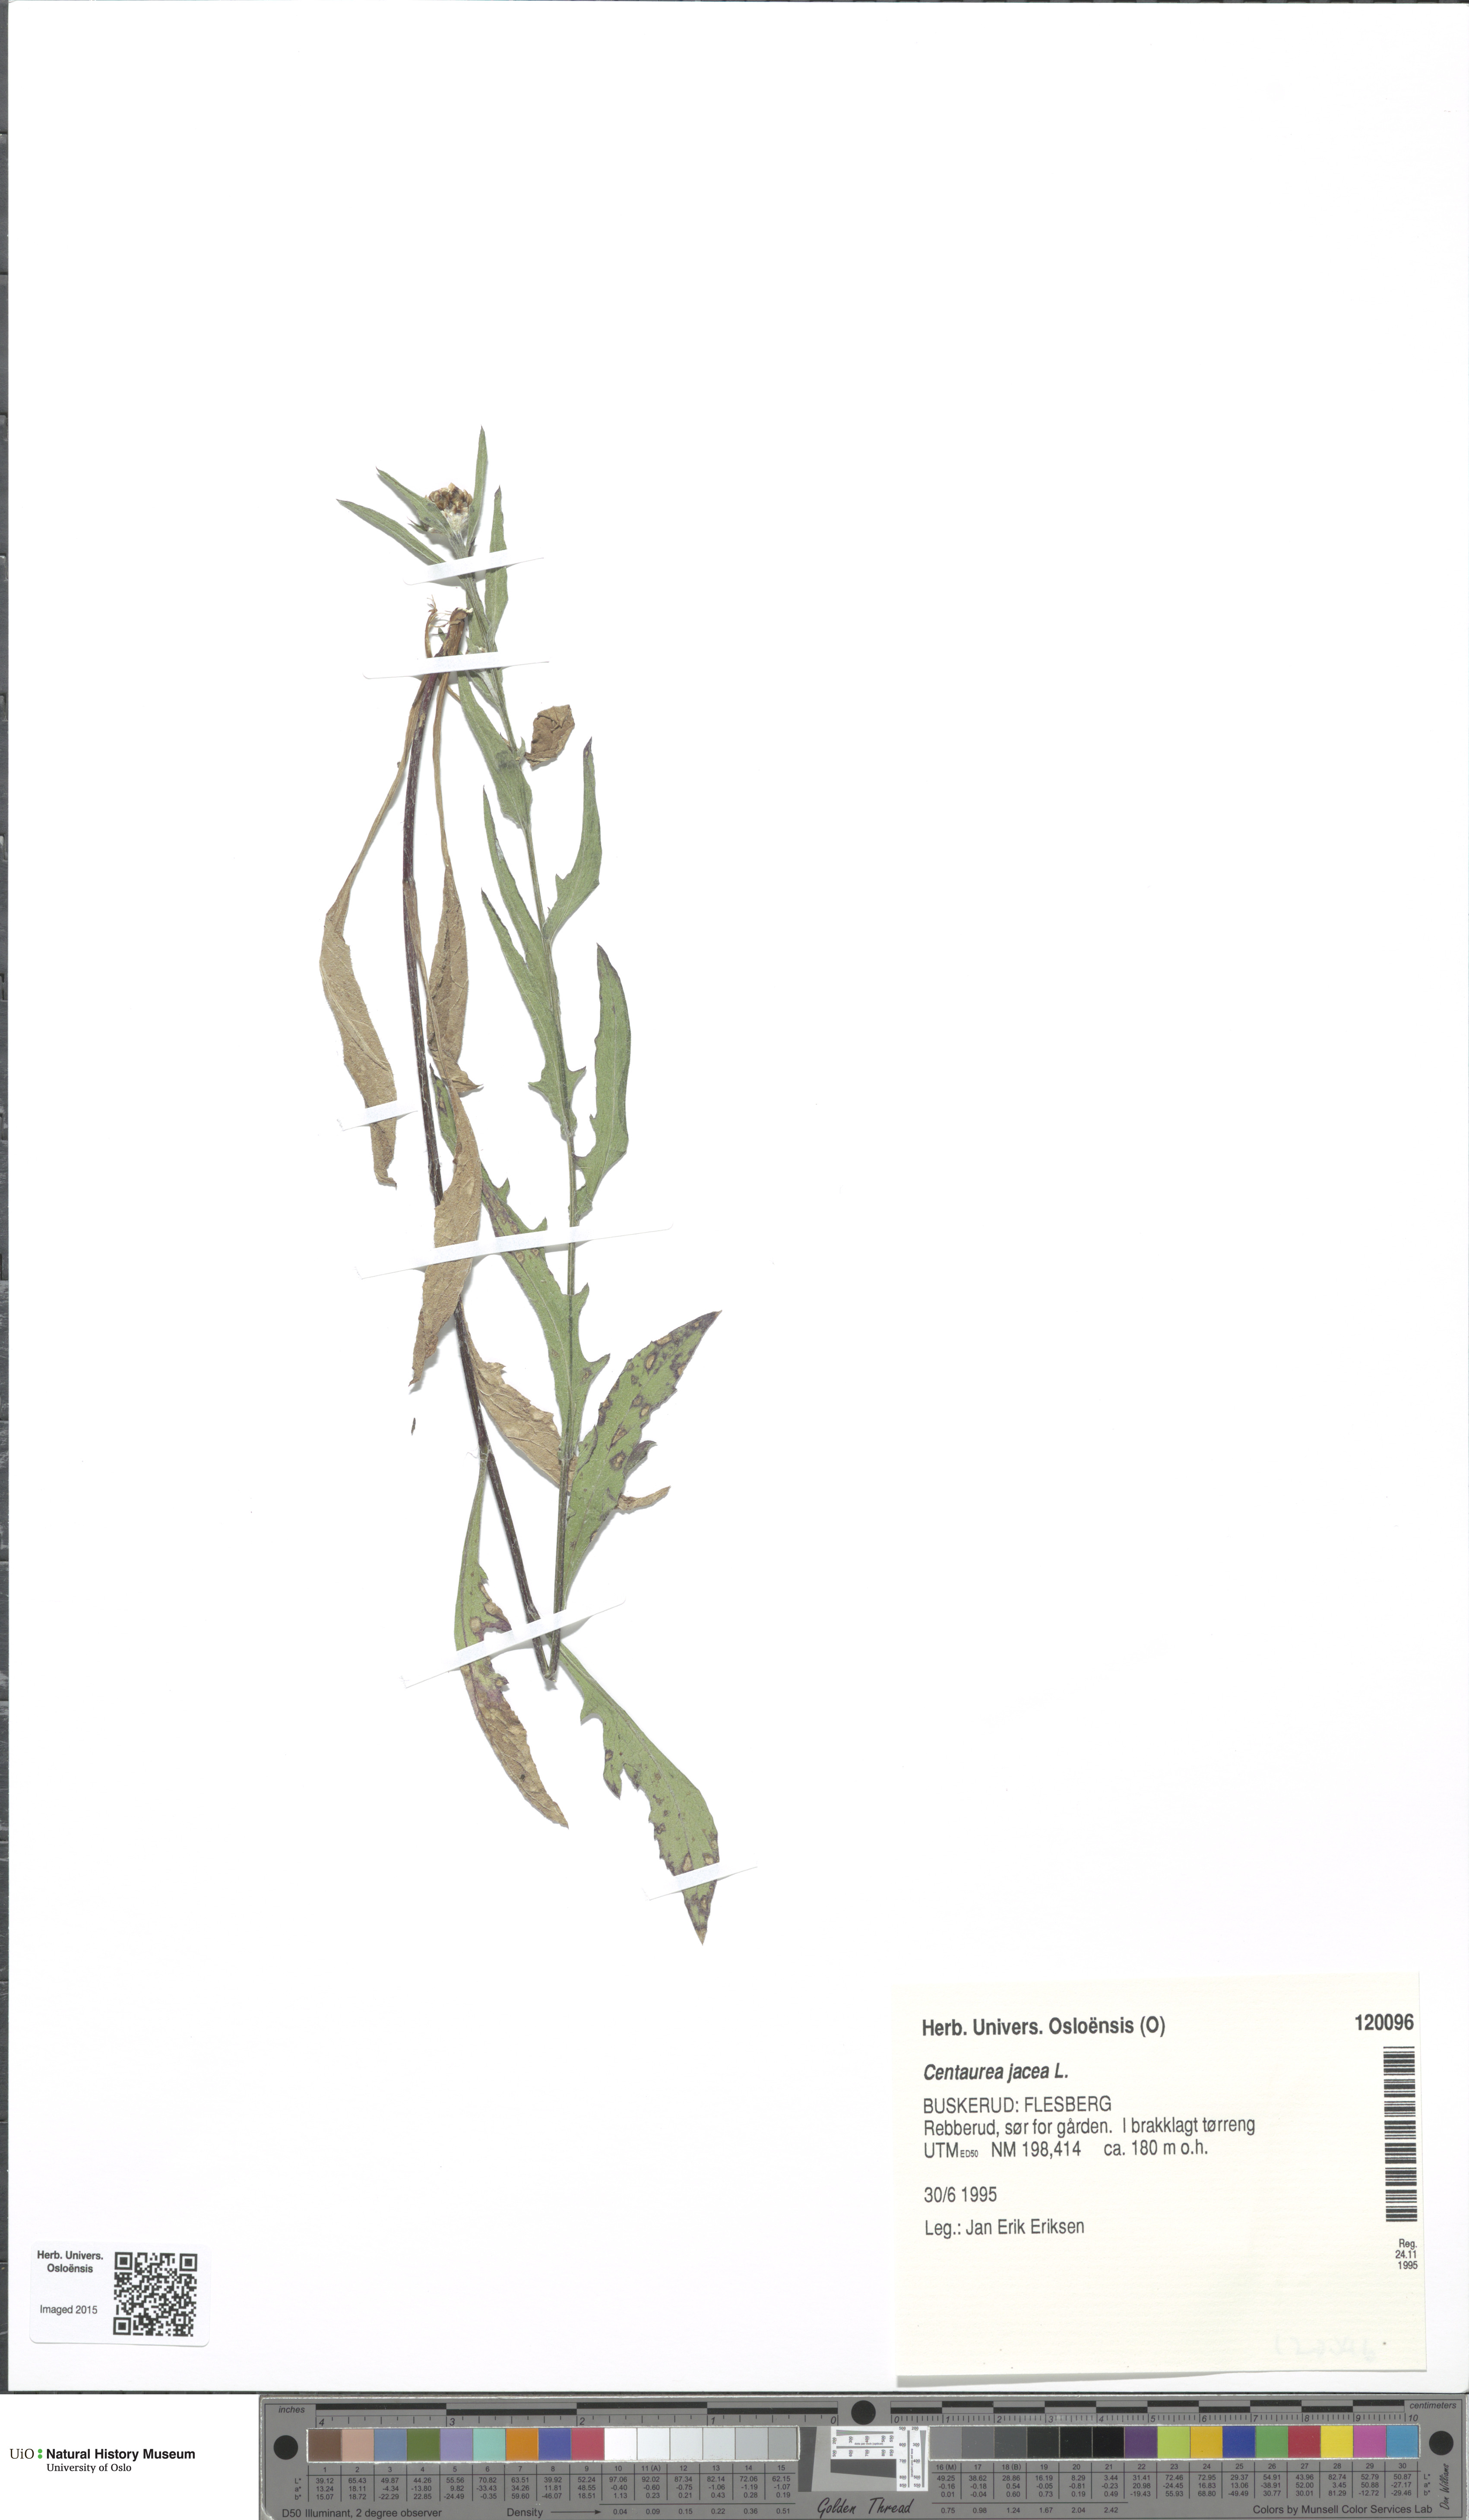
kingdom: Plantae
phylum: Tracheophyta
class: Magnoliopsida
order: Asterales
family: Asteraceae
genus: Centaurea
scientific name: Centaurea jacea
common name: Brown knapweed
